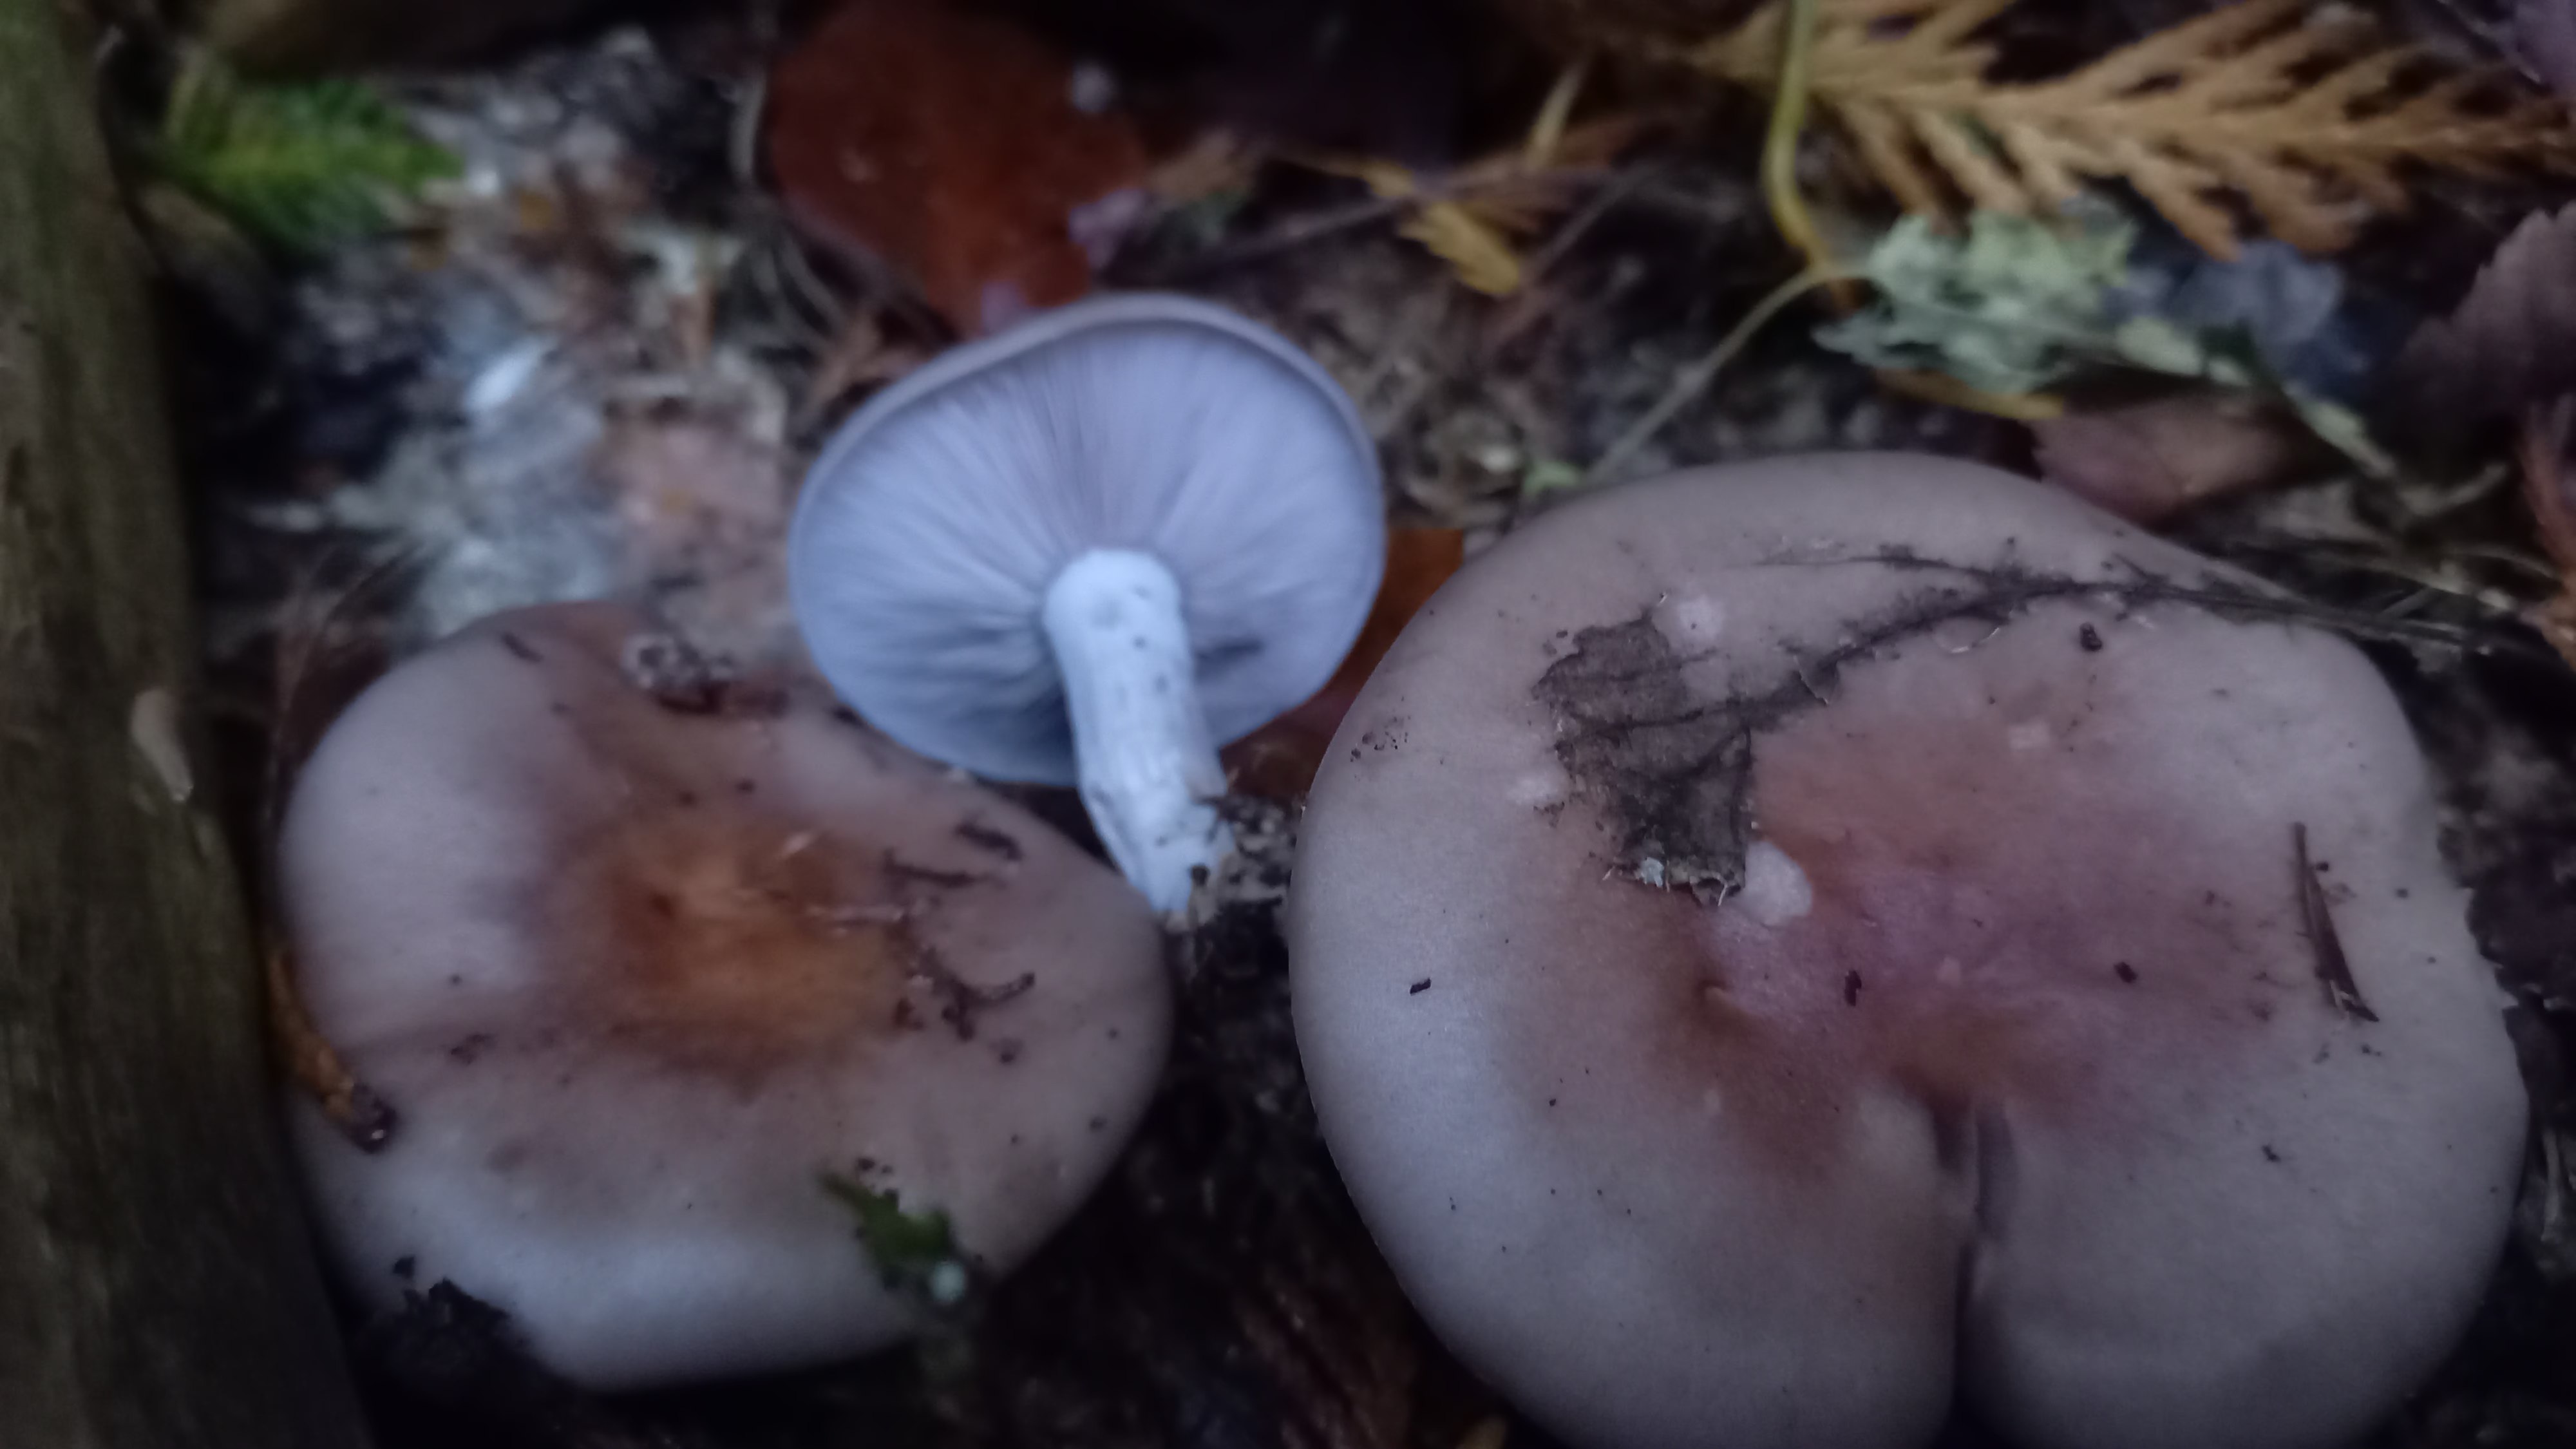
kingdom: Fungi
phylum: Basidiomycota
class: Agaricomycetes
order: Agaricales
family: Tricholomataceae
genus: Lepista
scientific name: Lepista nuda
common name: violet hekseringshat
